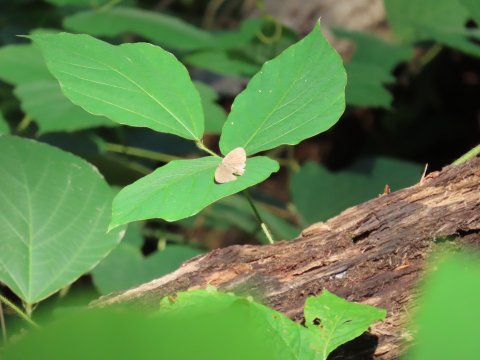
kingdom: Animalia
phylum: Arthropoda
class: Insecta
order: Lepidoptera
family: Nymphalidae
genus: Hermeuptychia
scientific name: Hermeuptychia hermes
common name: Carolina Satyr
